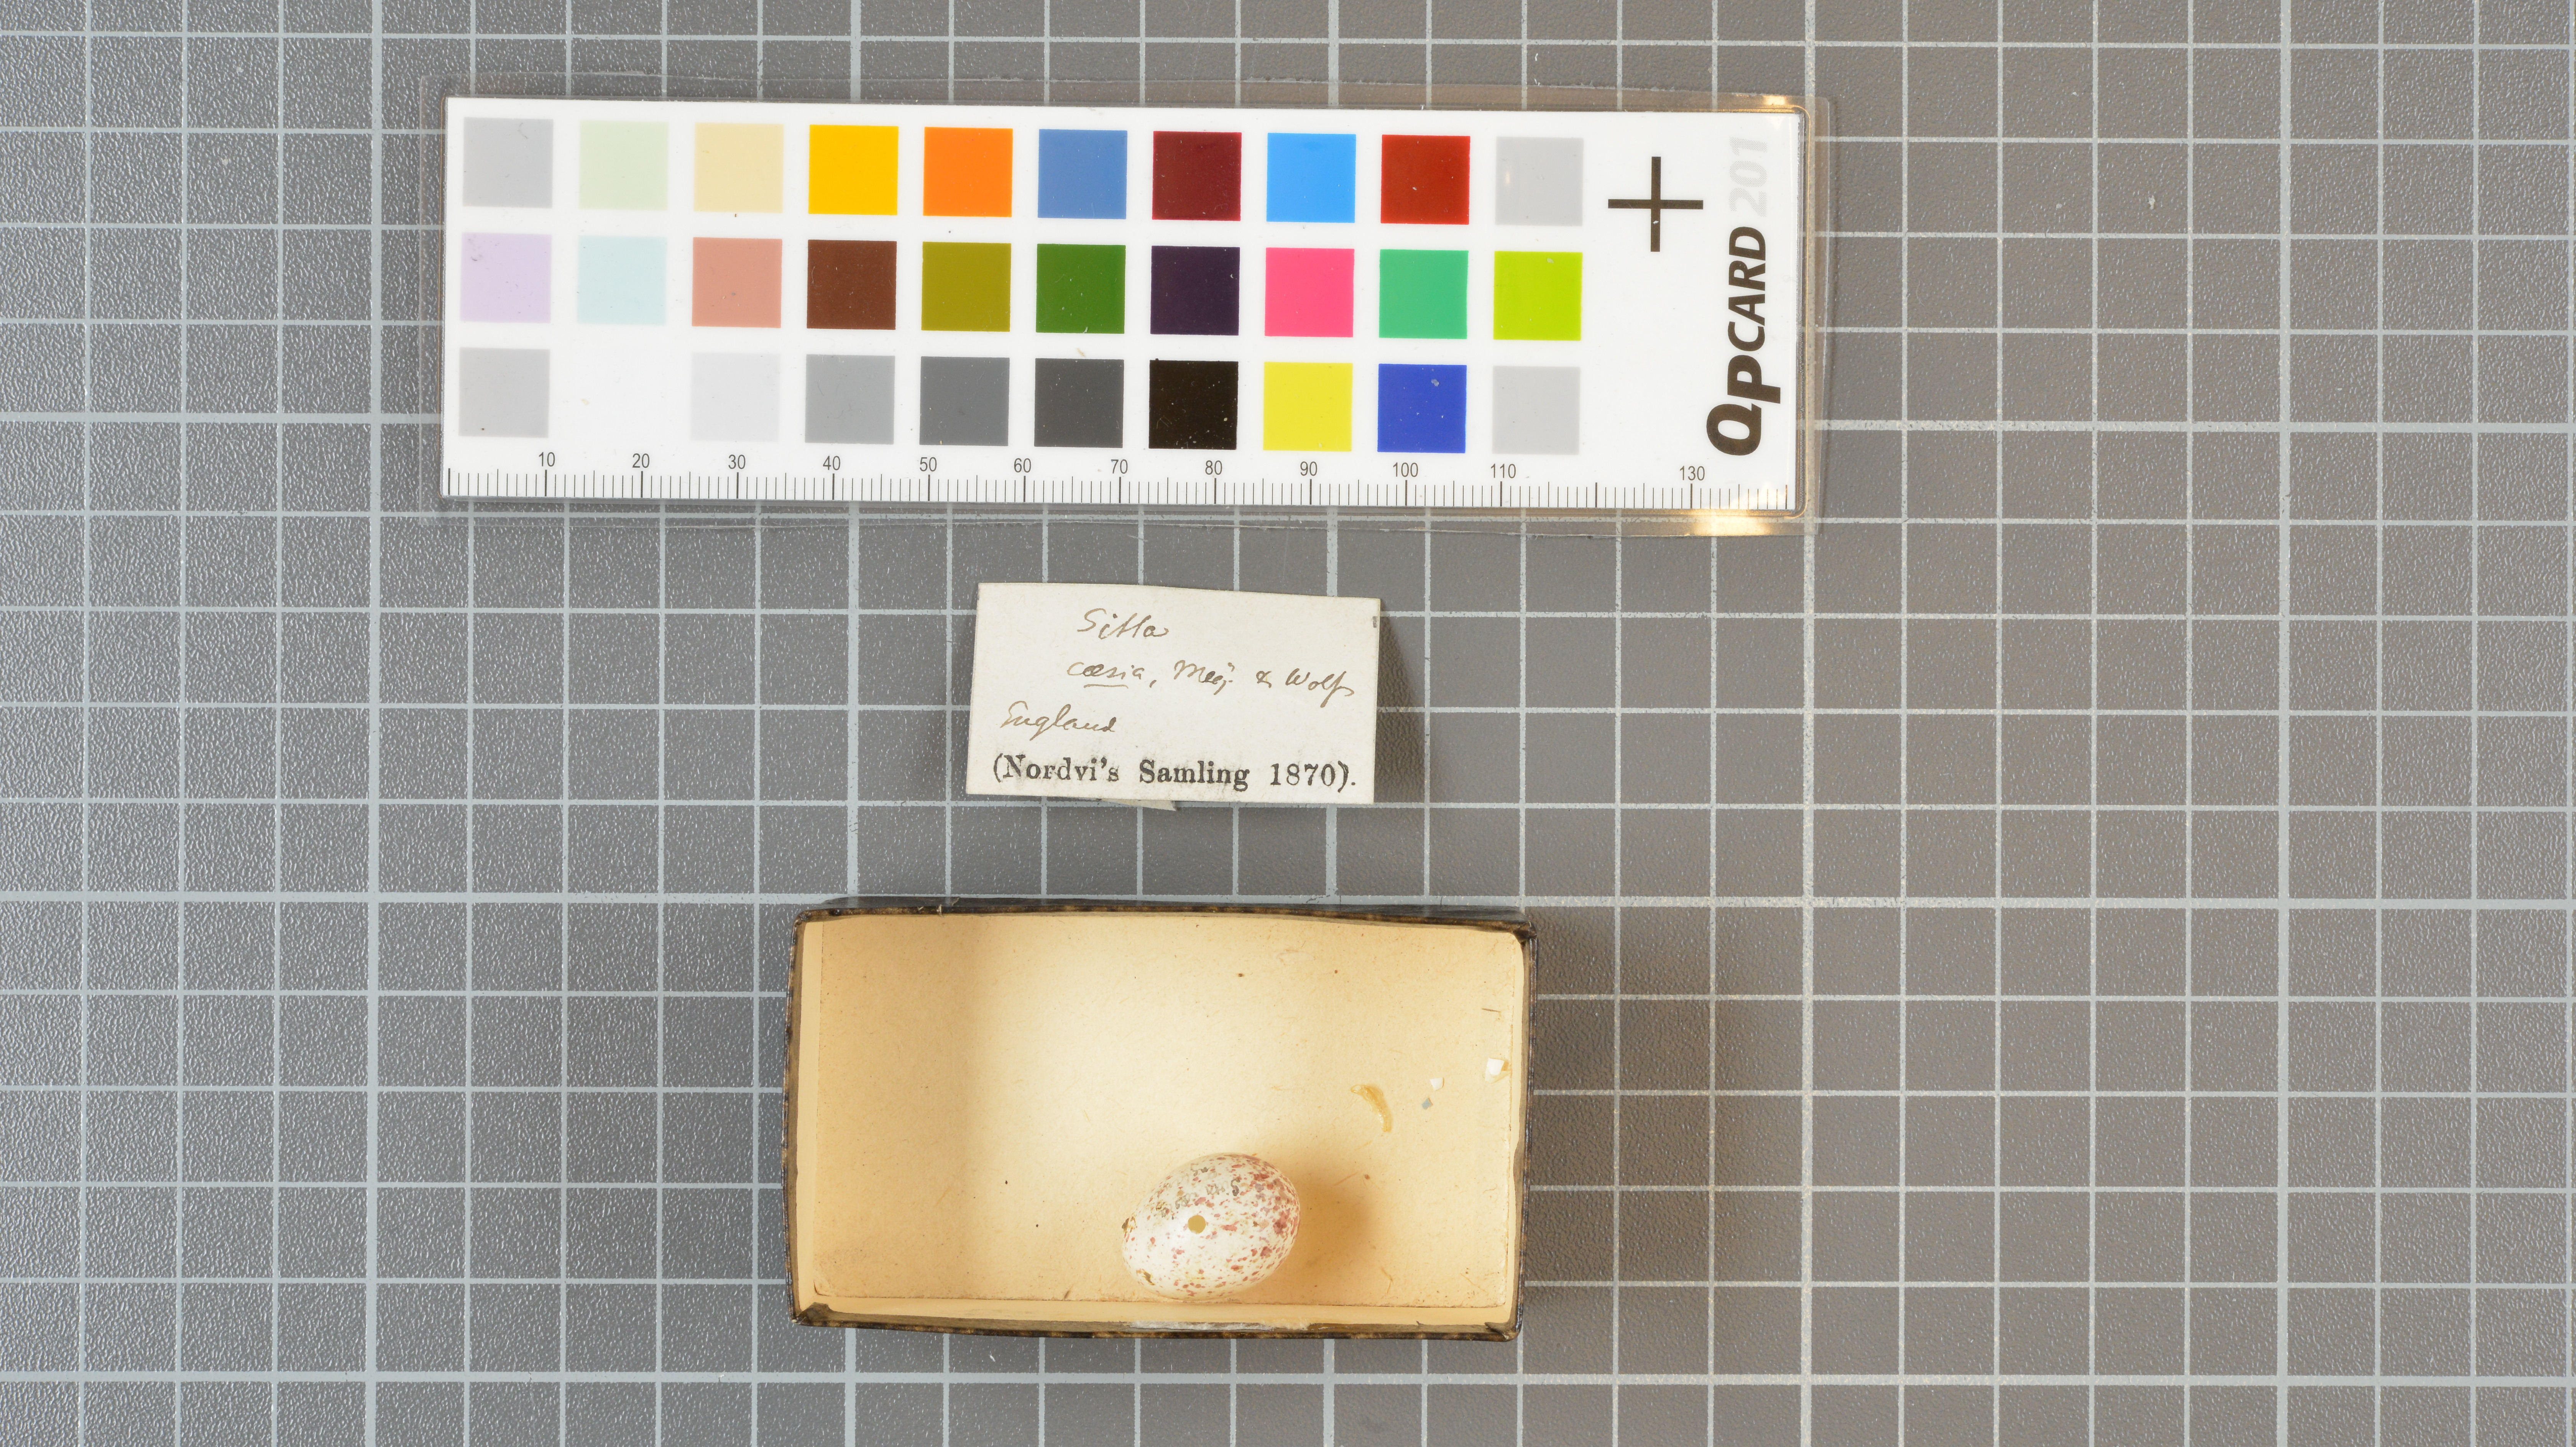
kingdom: Animalia
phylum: Chordata
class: Aves
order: Passeriformes
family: Sittidae
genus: Sitta
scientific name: Sitta europaea
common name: Eurasian nuthatch
